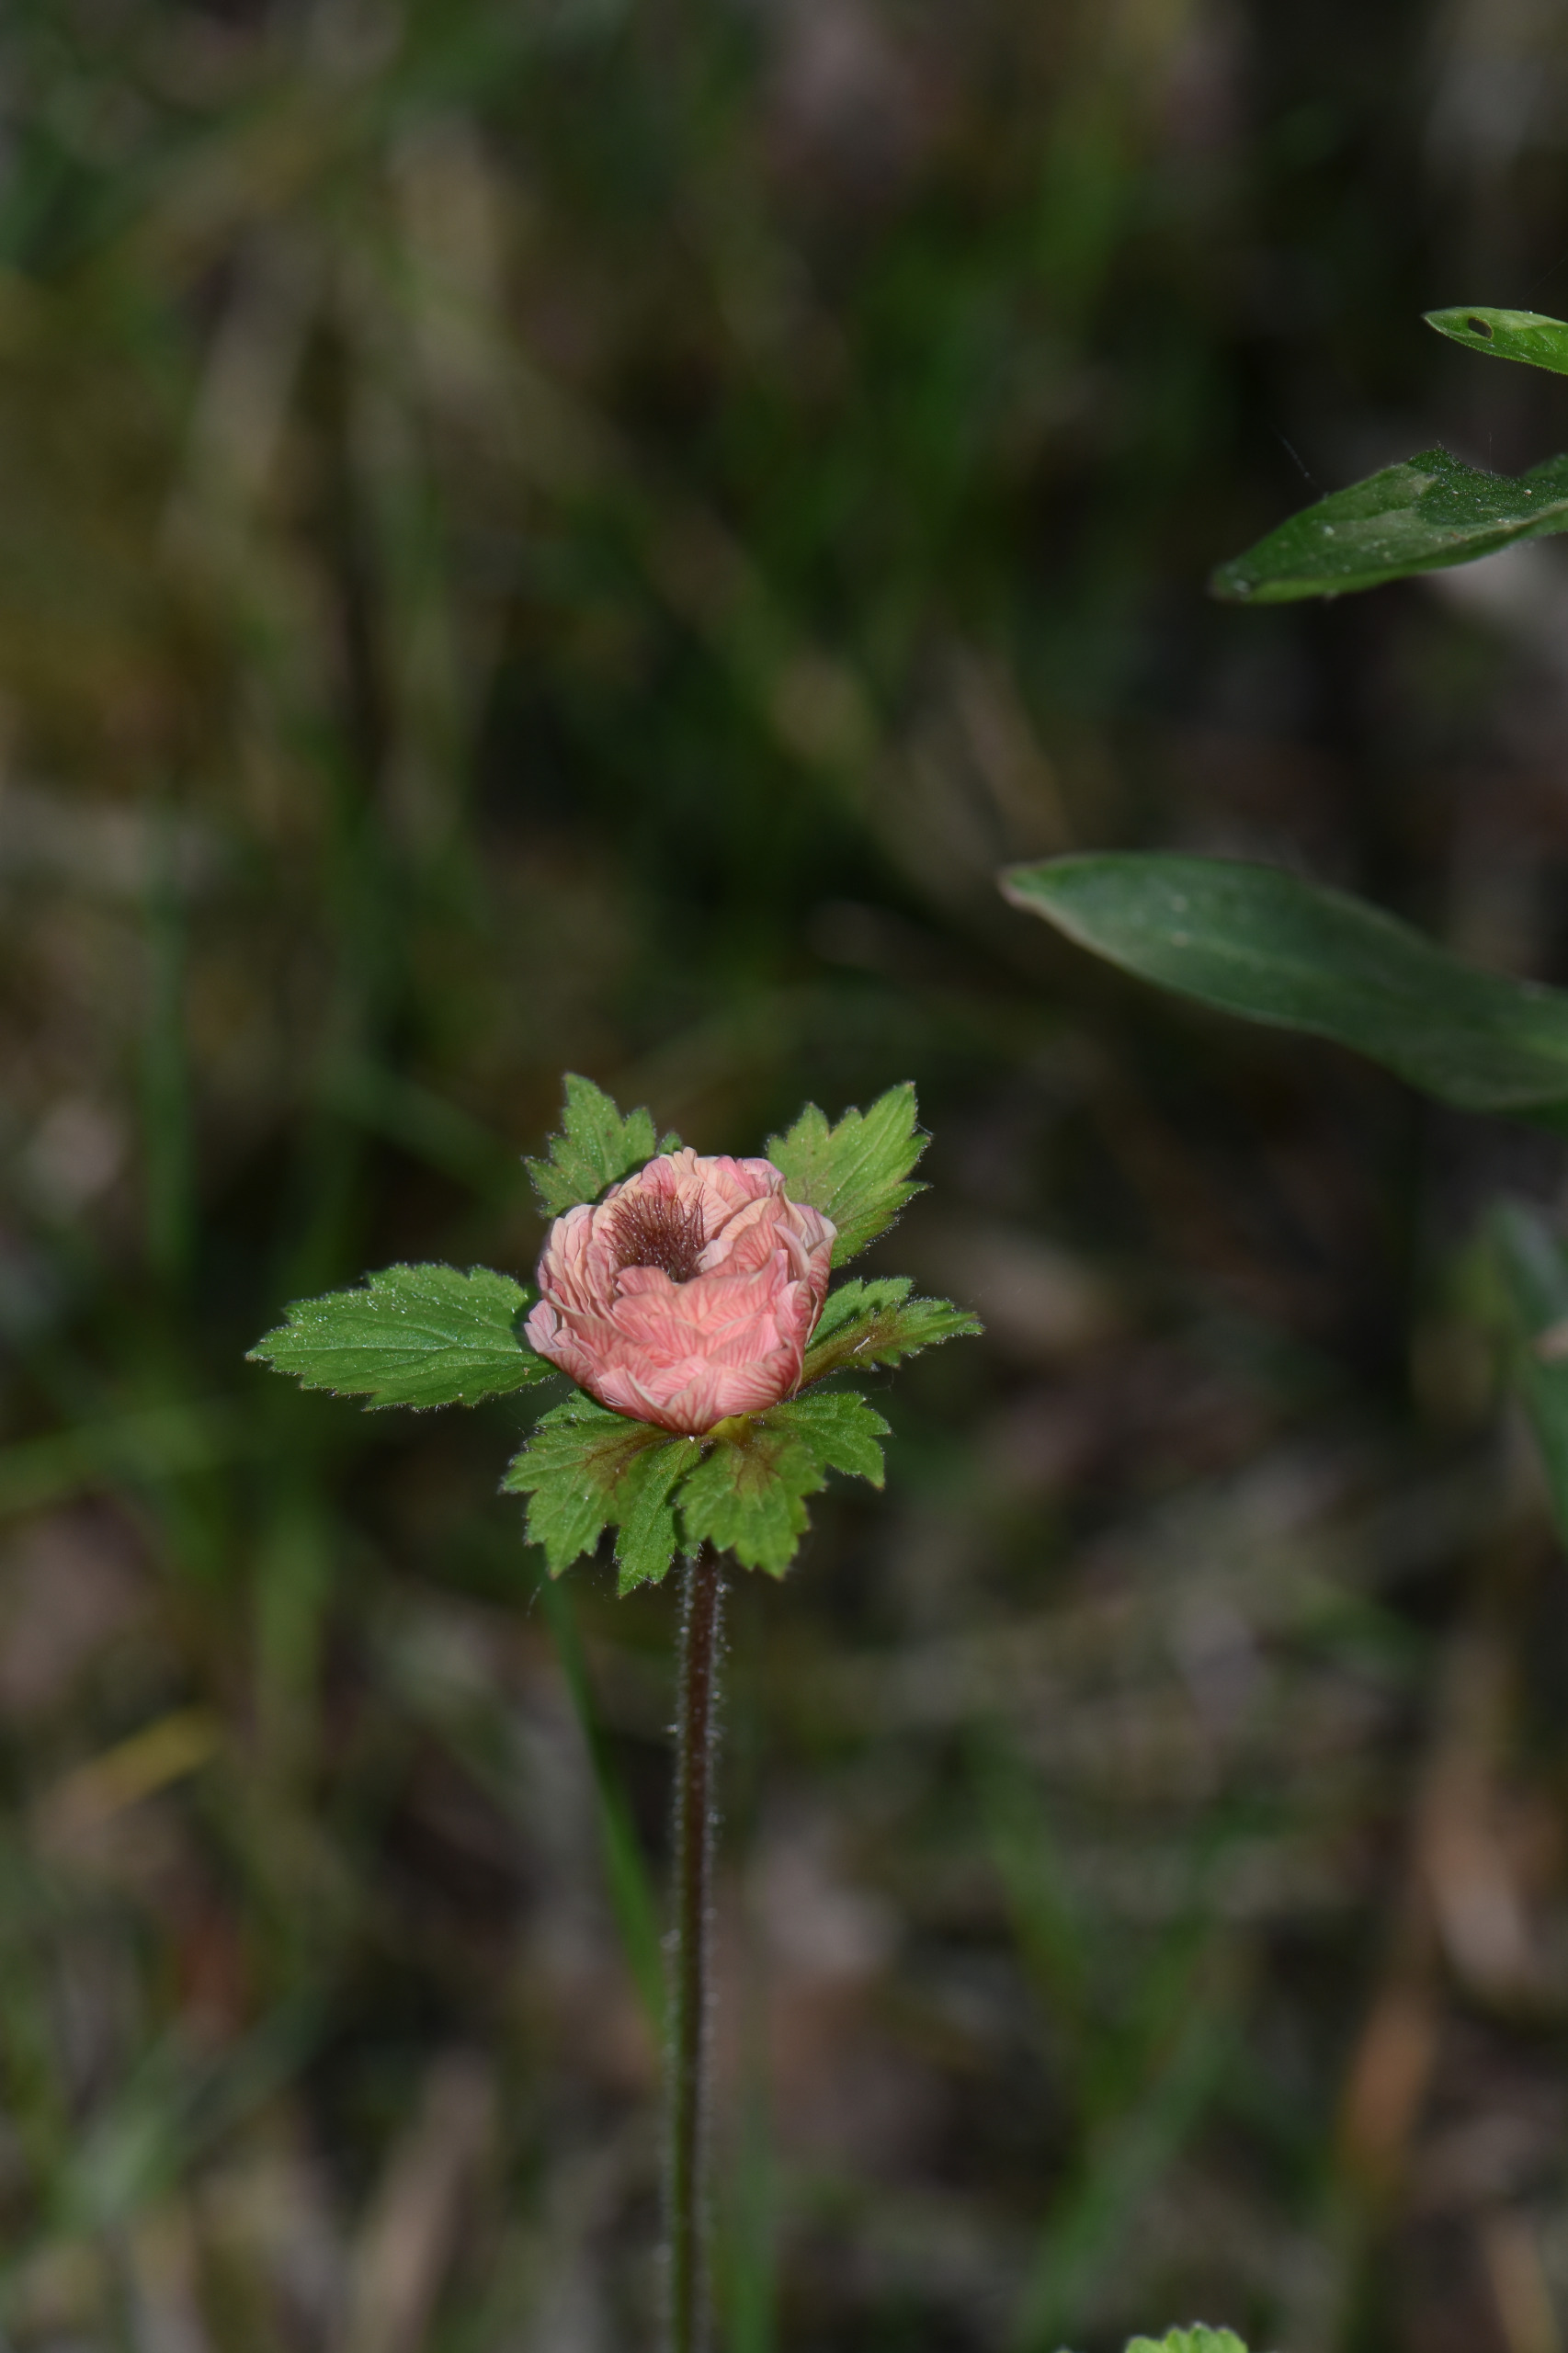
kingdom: Plantae
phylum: Tracheophyta
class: Magnoliopsida
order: Rosales
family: Rosaceae
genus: Geum
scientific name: Geum rivale
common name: Eng-nellikerod
